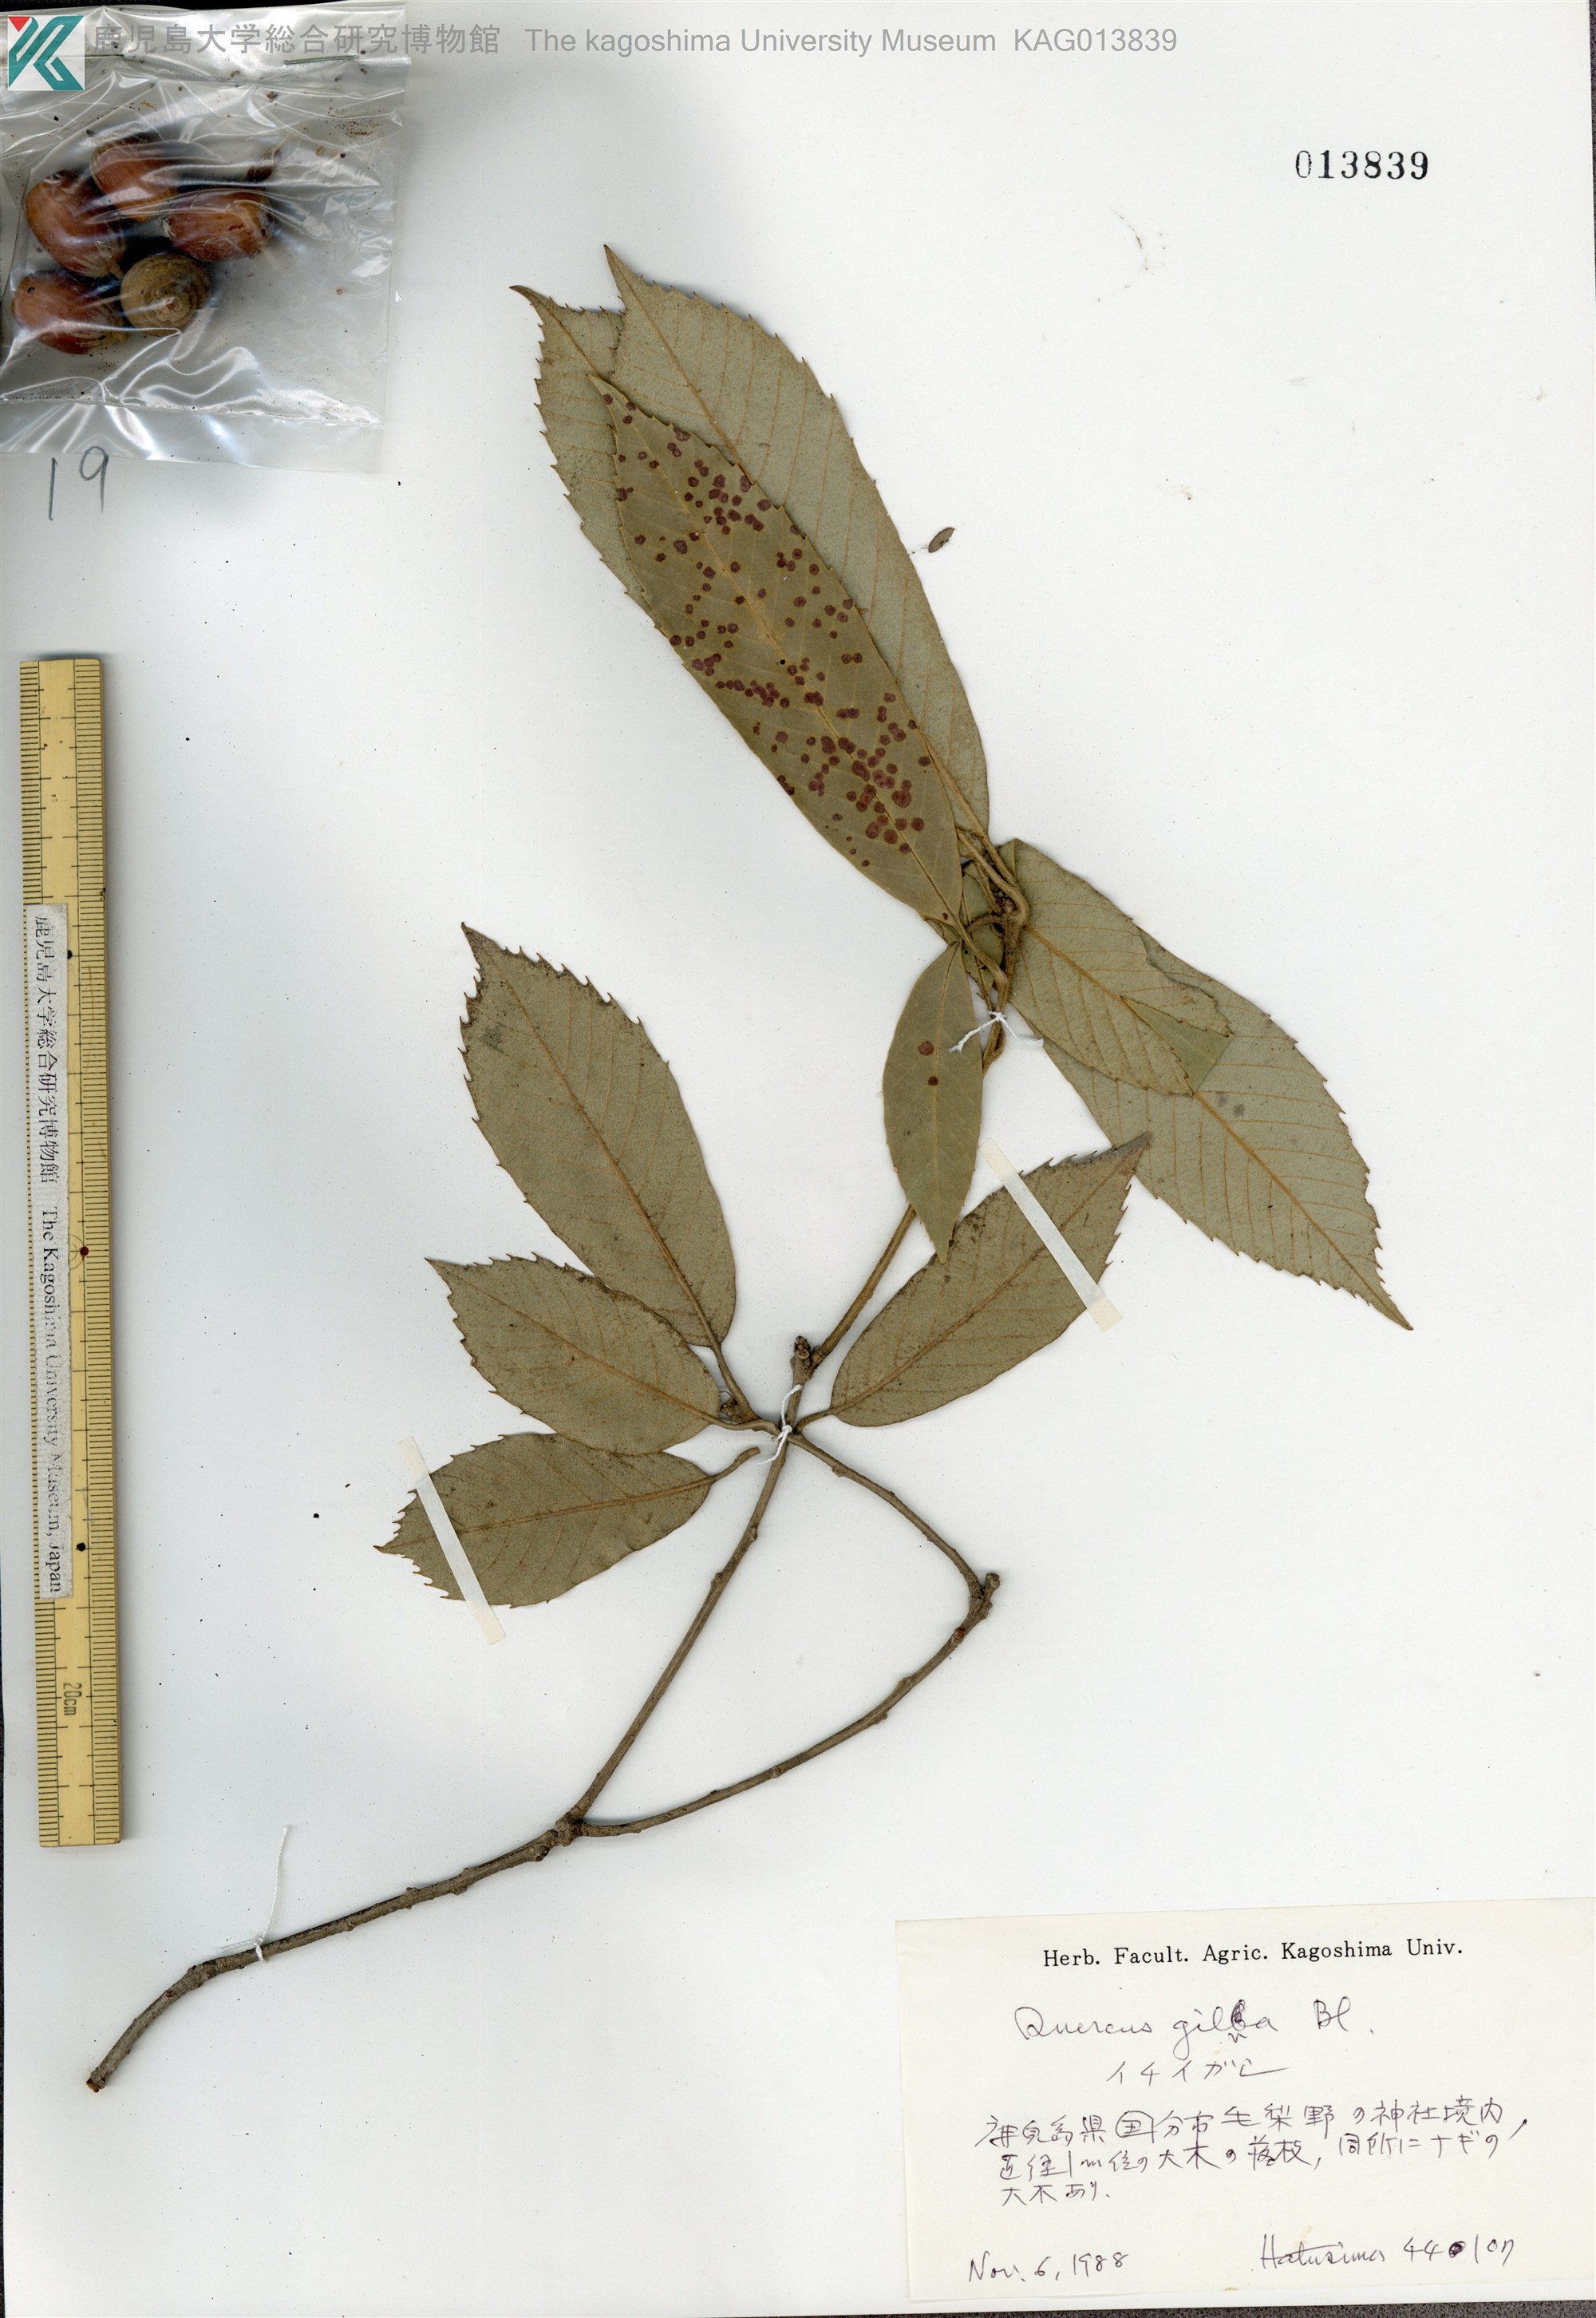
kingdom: Plantae
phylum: Tracheophyta
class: Magnoliopsida
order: Fagales
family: Fagaceae
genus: Quercus
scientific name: Quercus gilva
